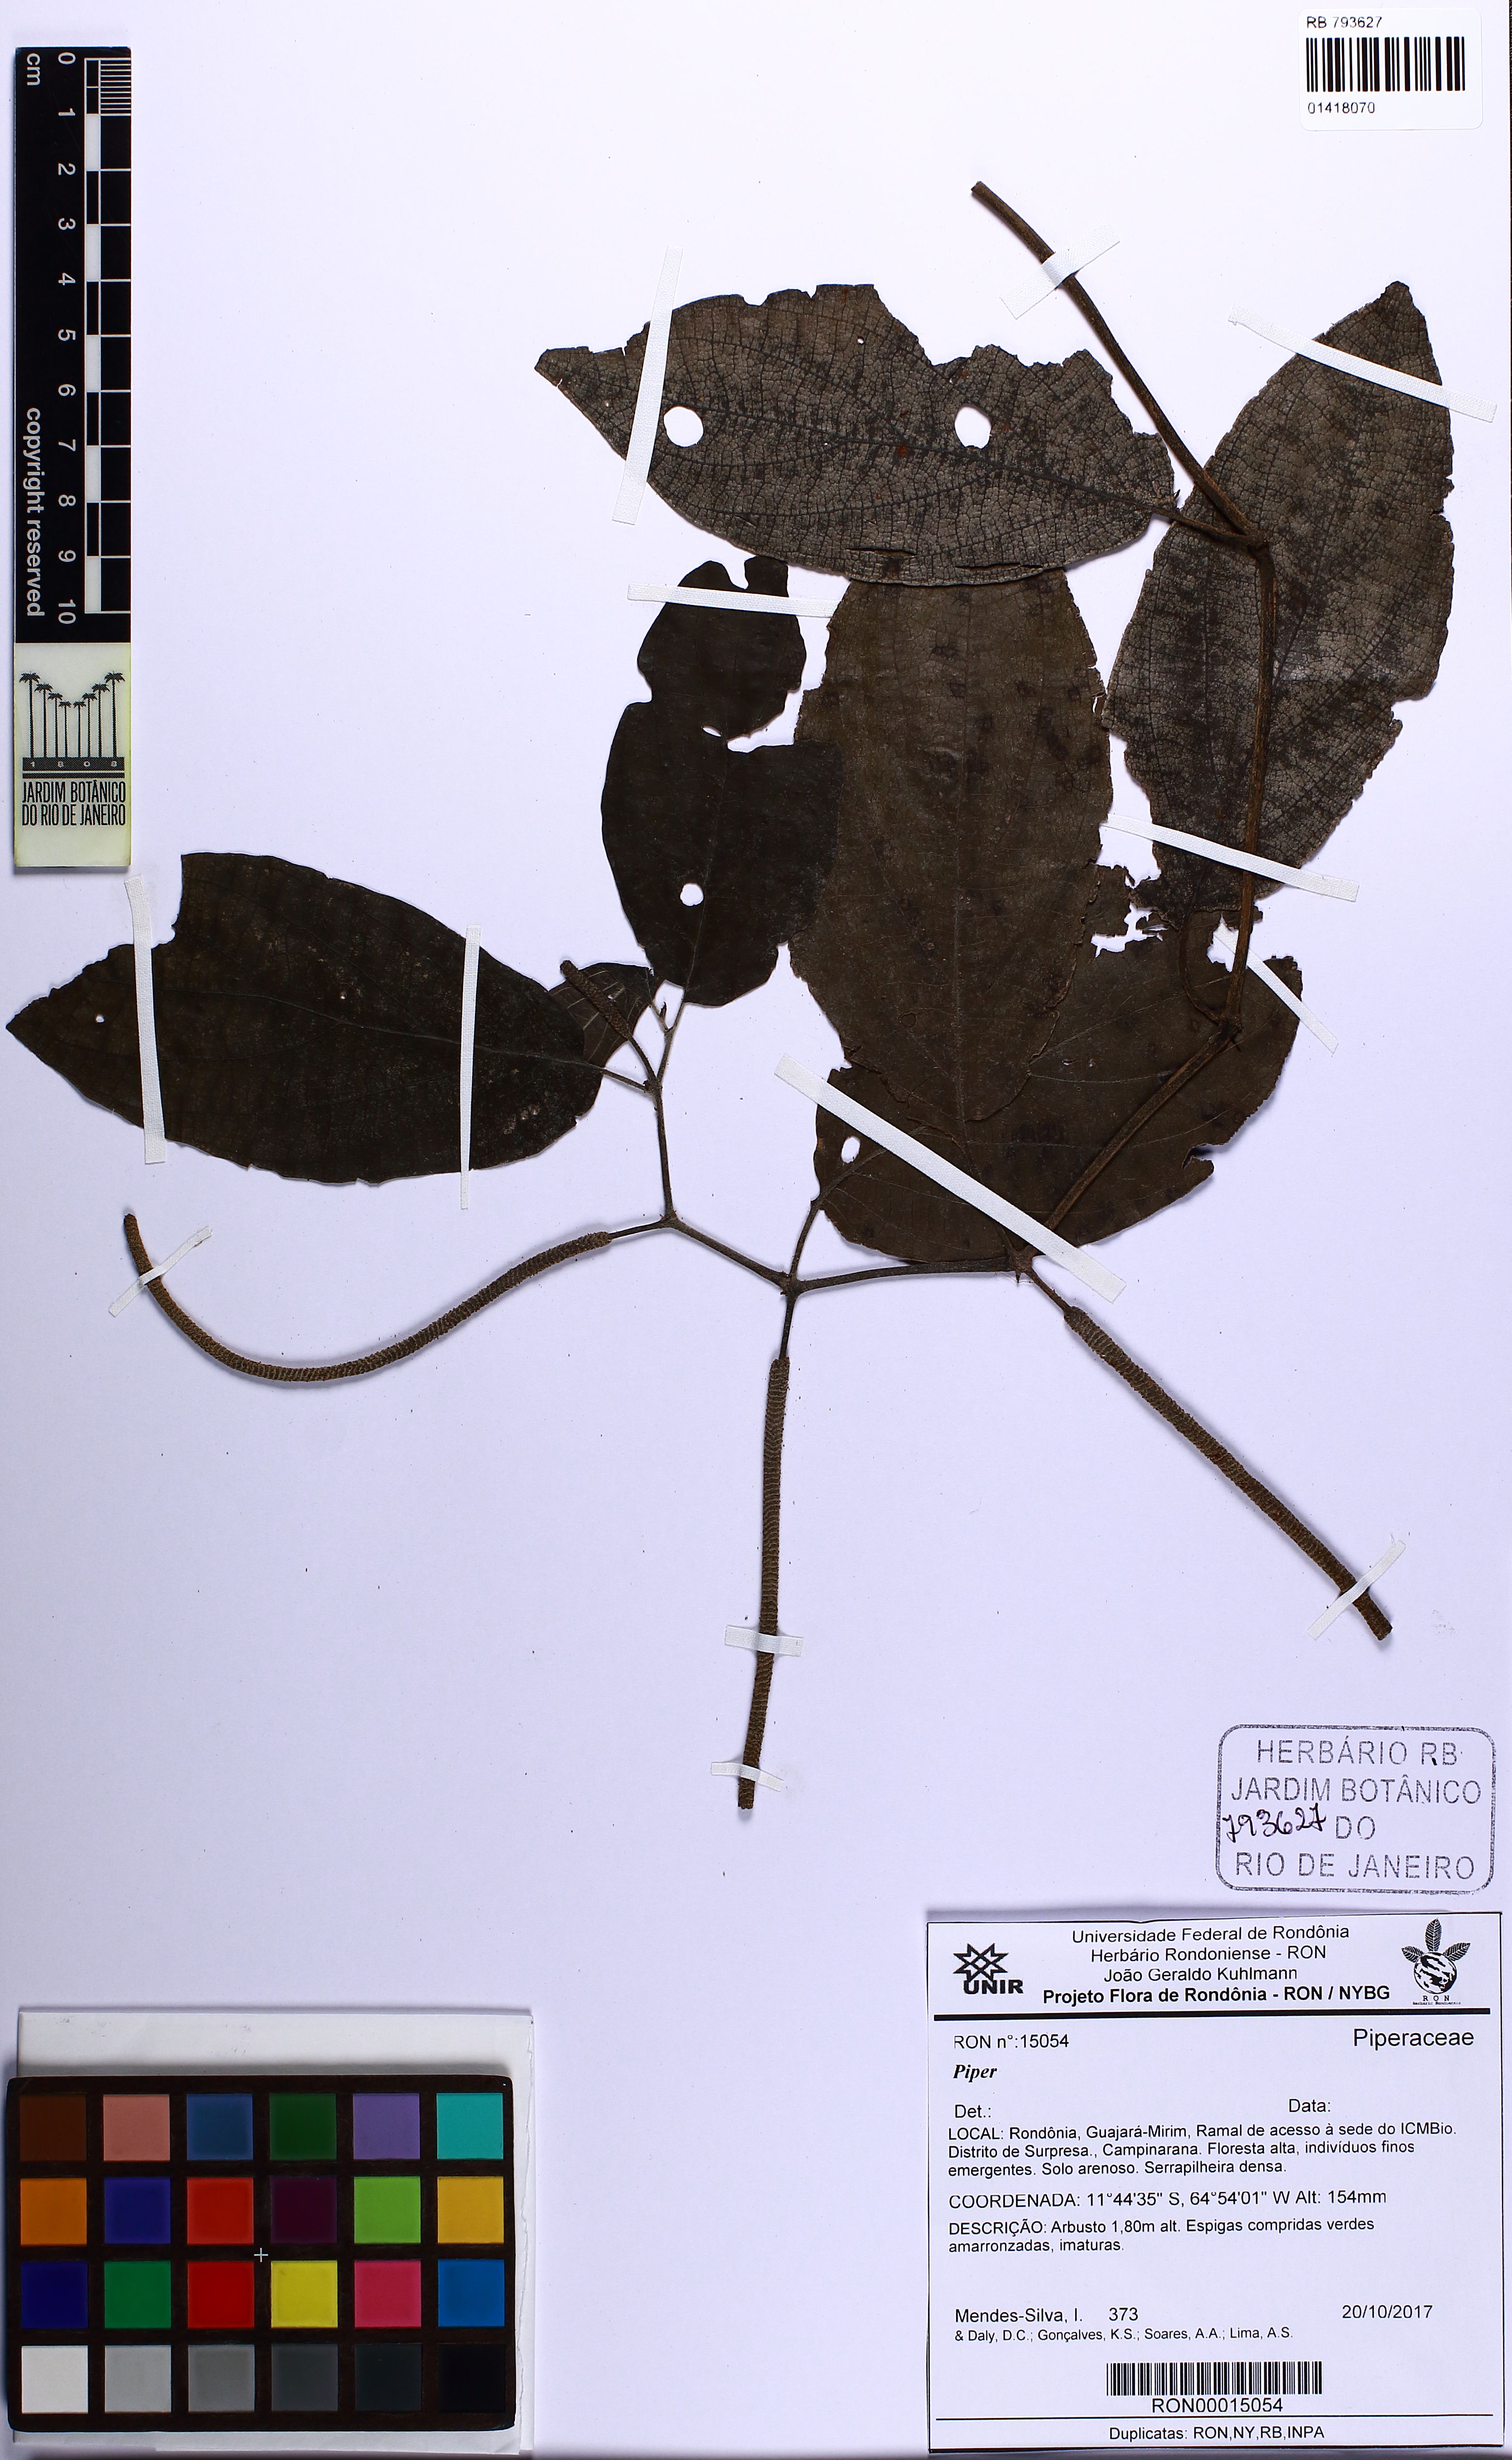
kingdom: Plantae
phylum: Tracheophyta
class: Magnoliopsida
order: Piperales
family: Piperaceae
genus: Piper
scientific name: Piper
